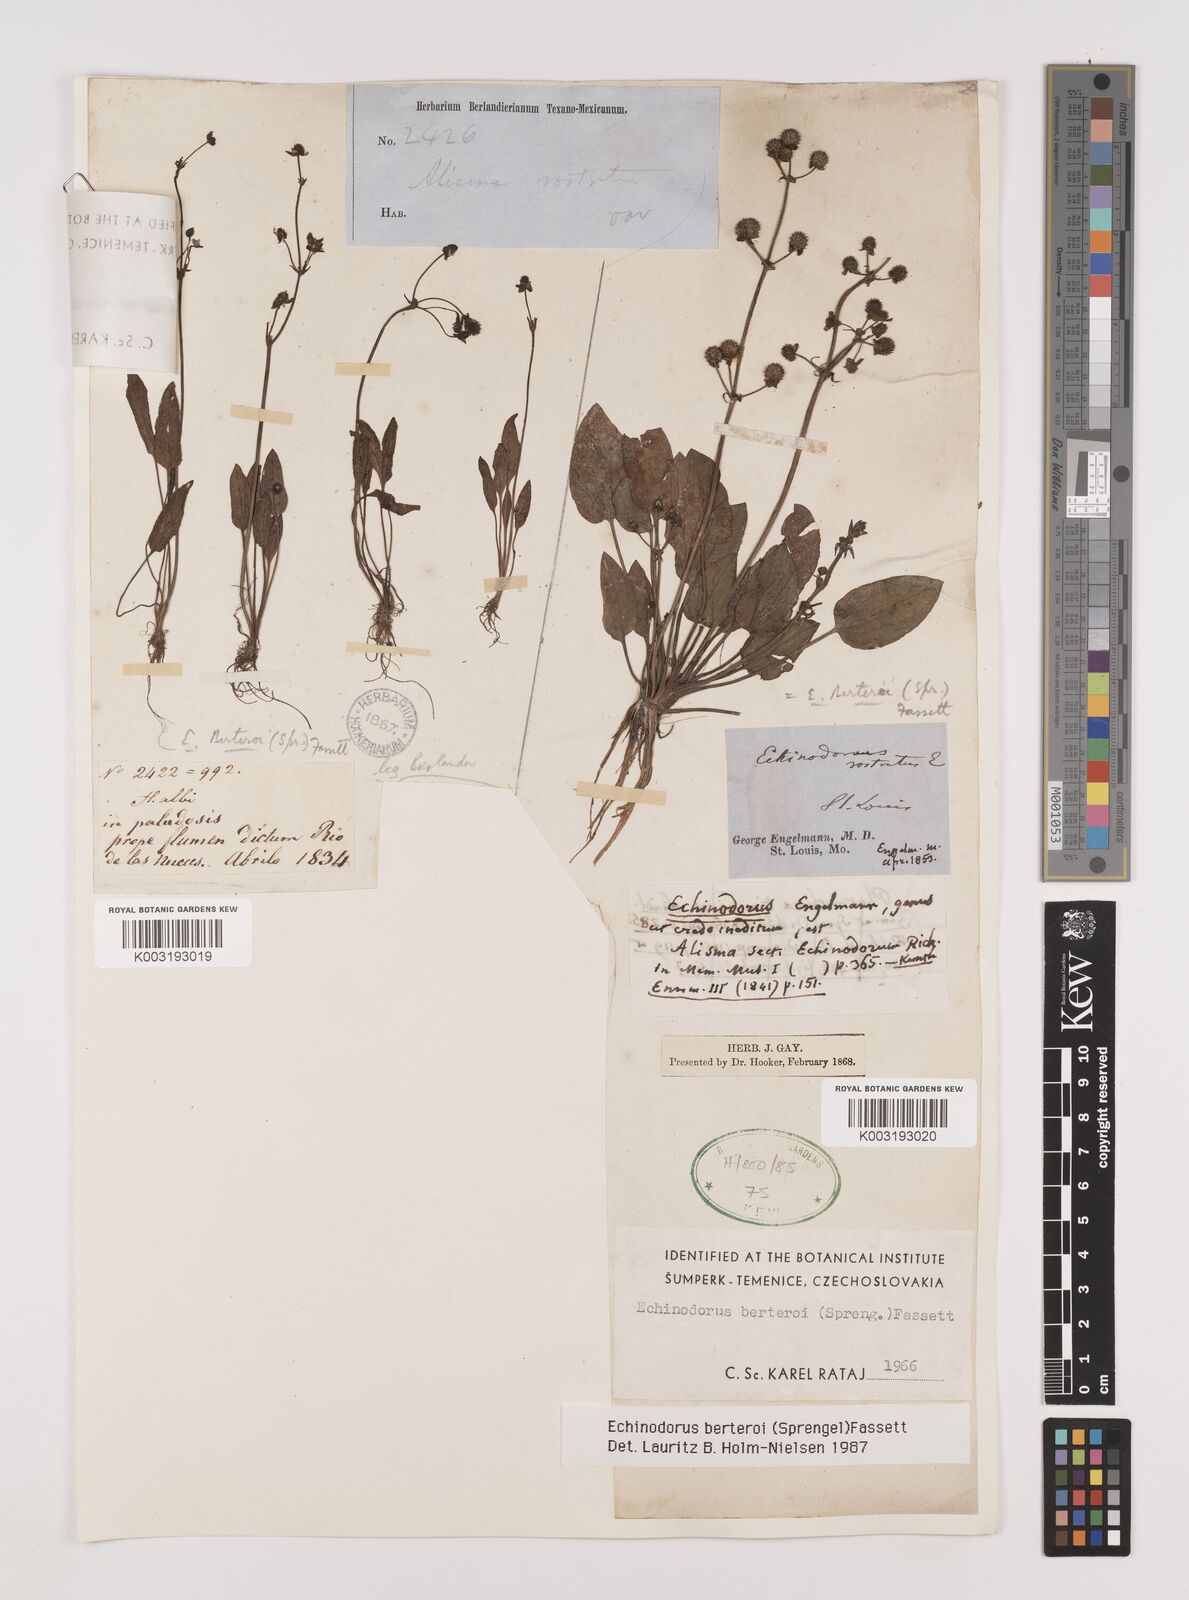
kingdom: Plantae
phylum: Tracheophyta
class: Liliopsida
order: Alismatales
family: Alismataceae
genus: Echinodorus
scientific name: Echinodorus berteroi
